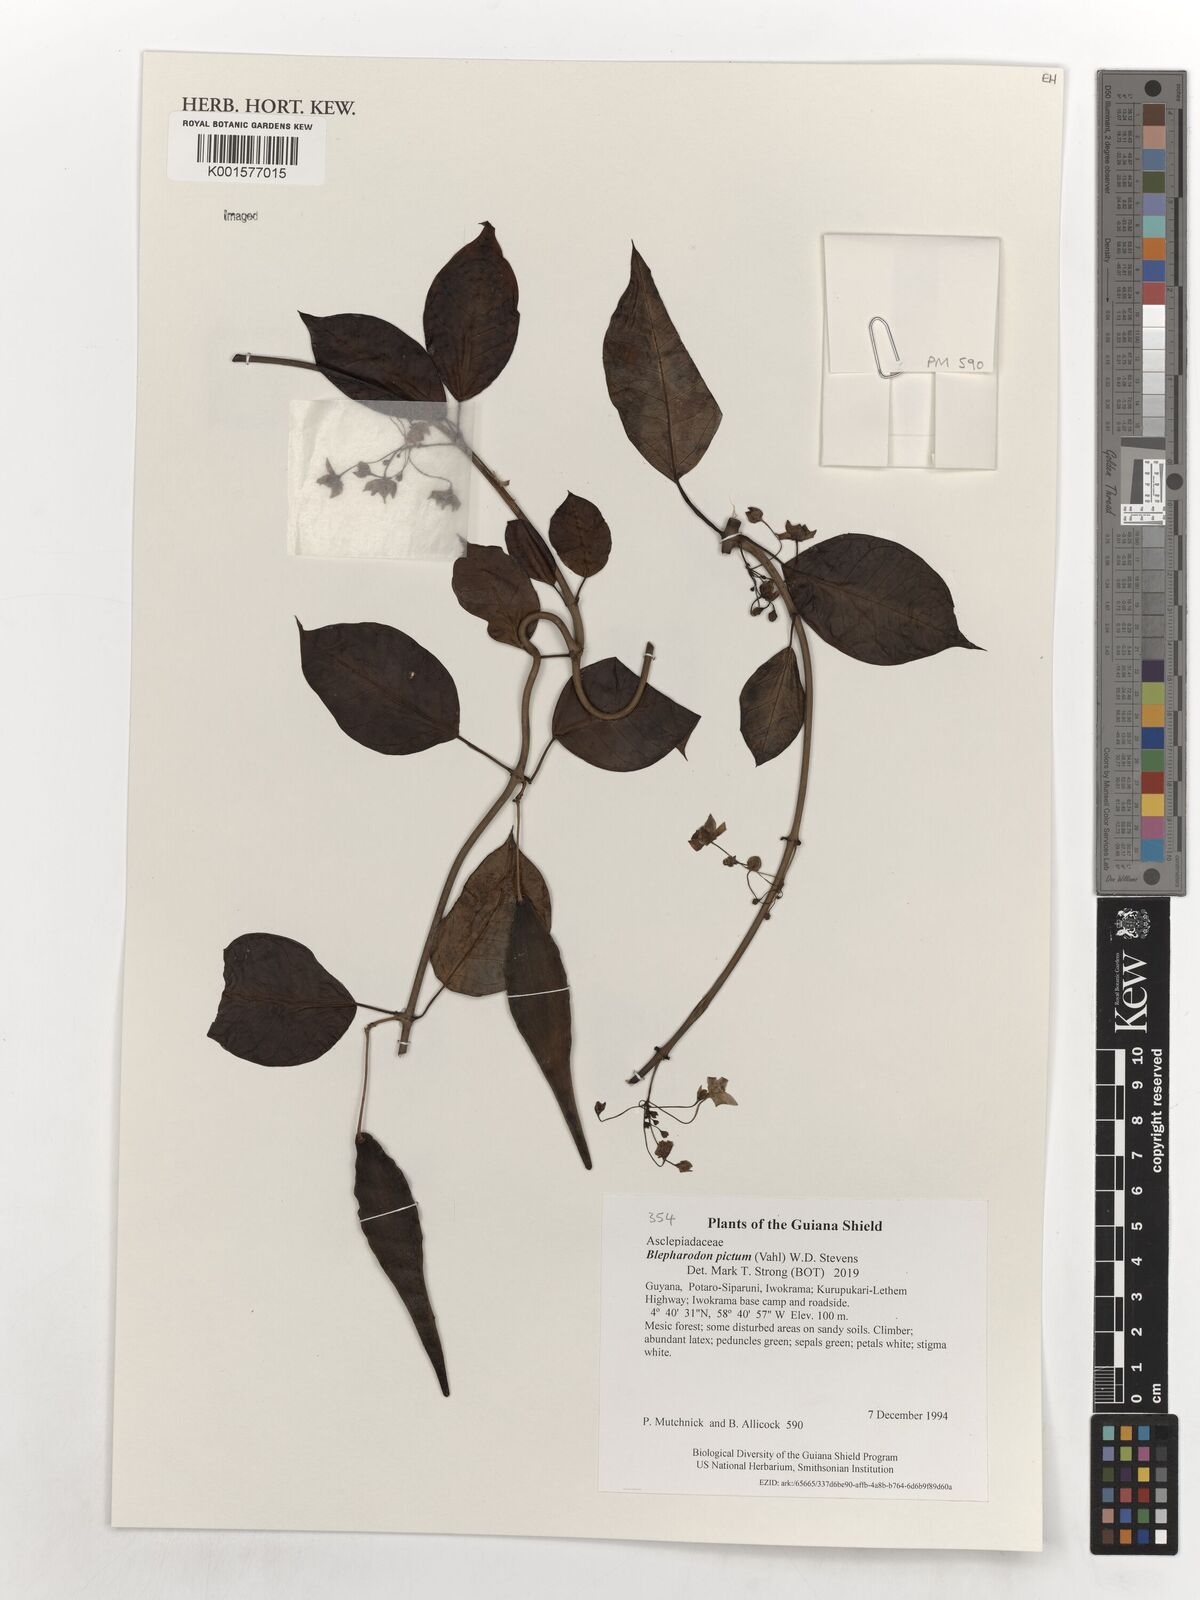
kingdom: Plantae
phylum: Tracheophyta
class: Magnoliopsida
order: Gentianales
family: Apocynaceae
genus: Blepharodon
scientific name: Blepharodon pictum
